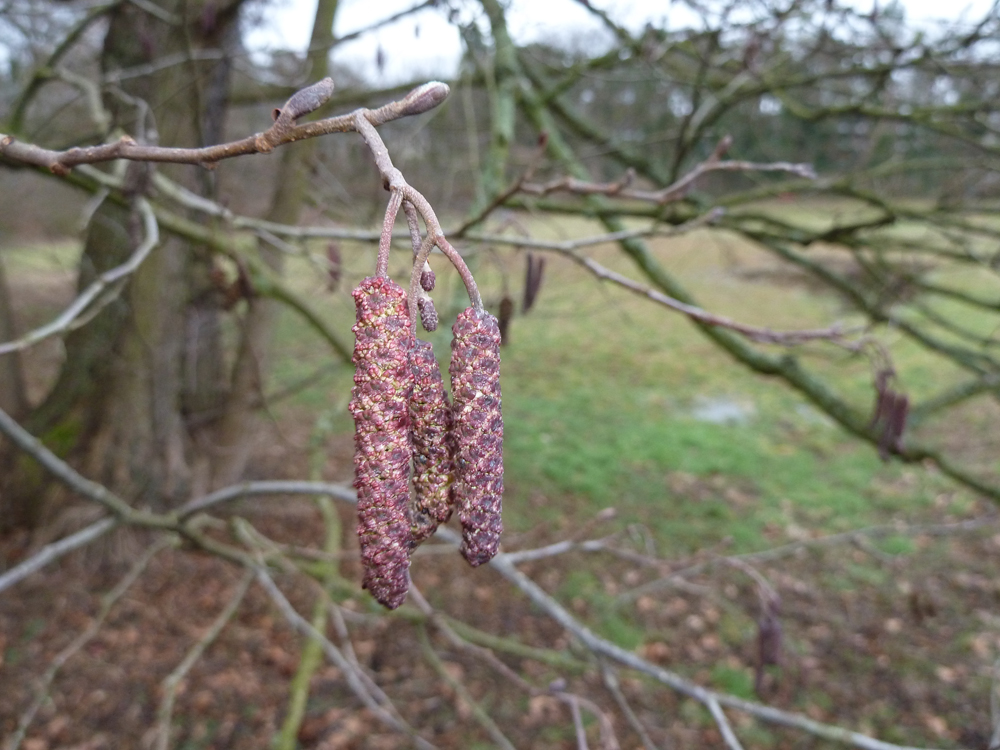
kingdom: Plantae
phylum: Tracheophyta
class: Magnoliopsida
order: Fagales
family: Betulaceae
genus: Alnus
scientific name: Alnus glutinosa
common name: Black alder
